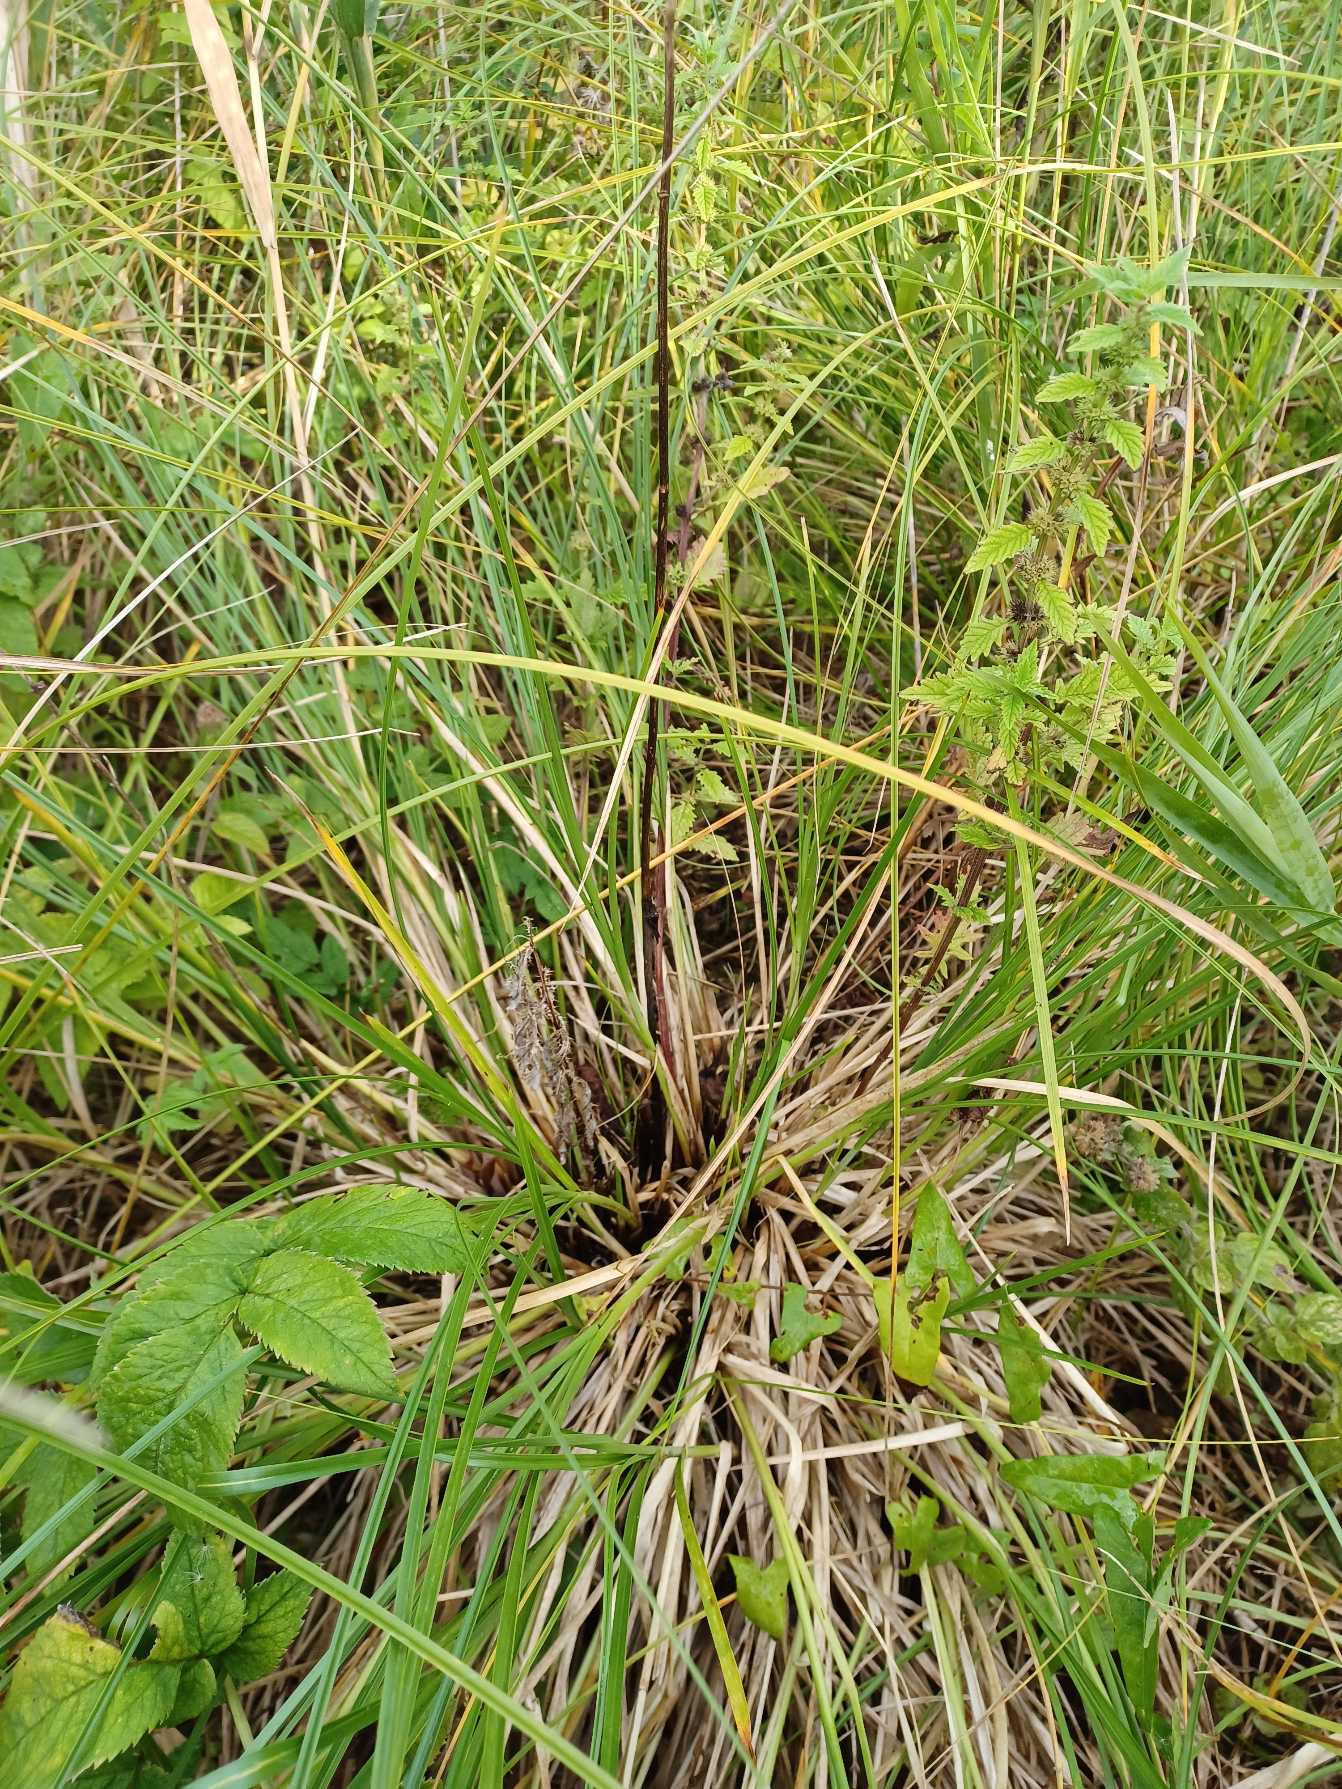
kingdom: Plantae
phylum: Tracheophyta
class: Liliopsida
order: Poales
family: Cyperaceae
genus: Carex
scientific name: Carex paniculata
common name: Top-star
